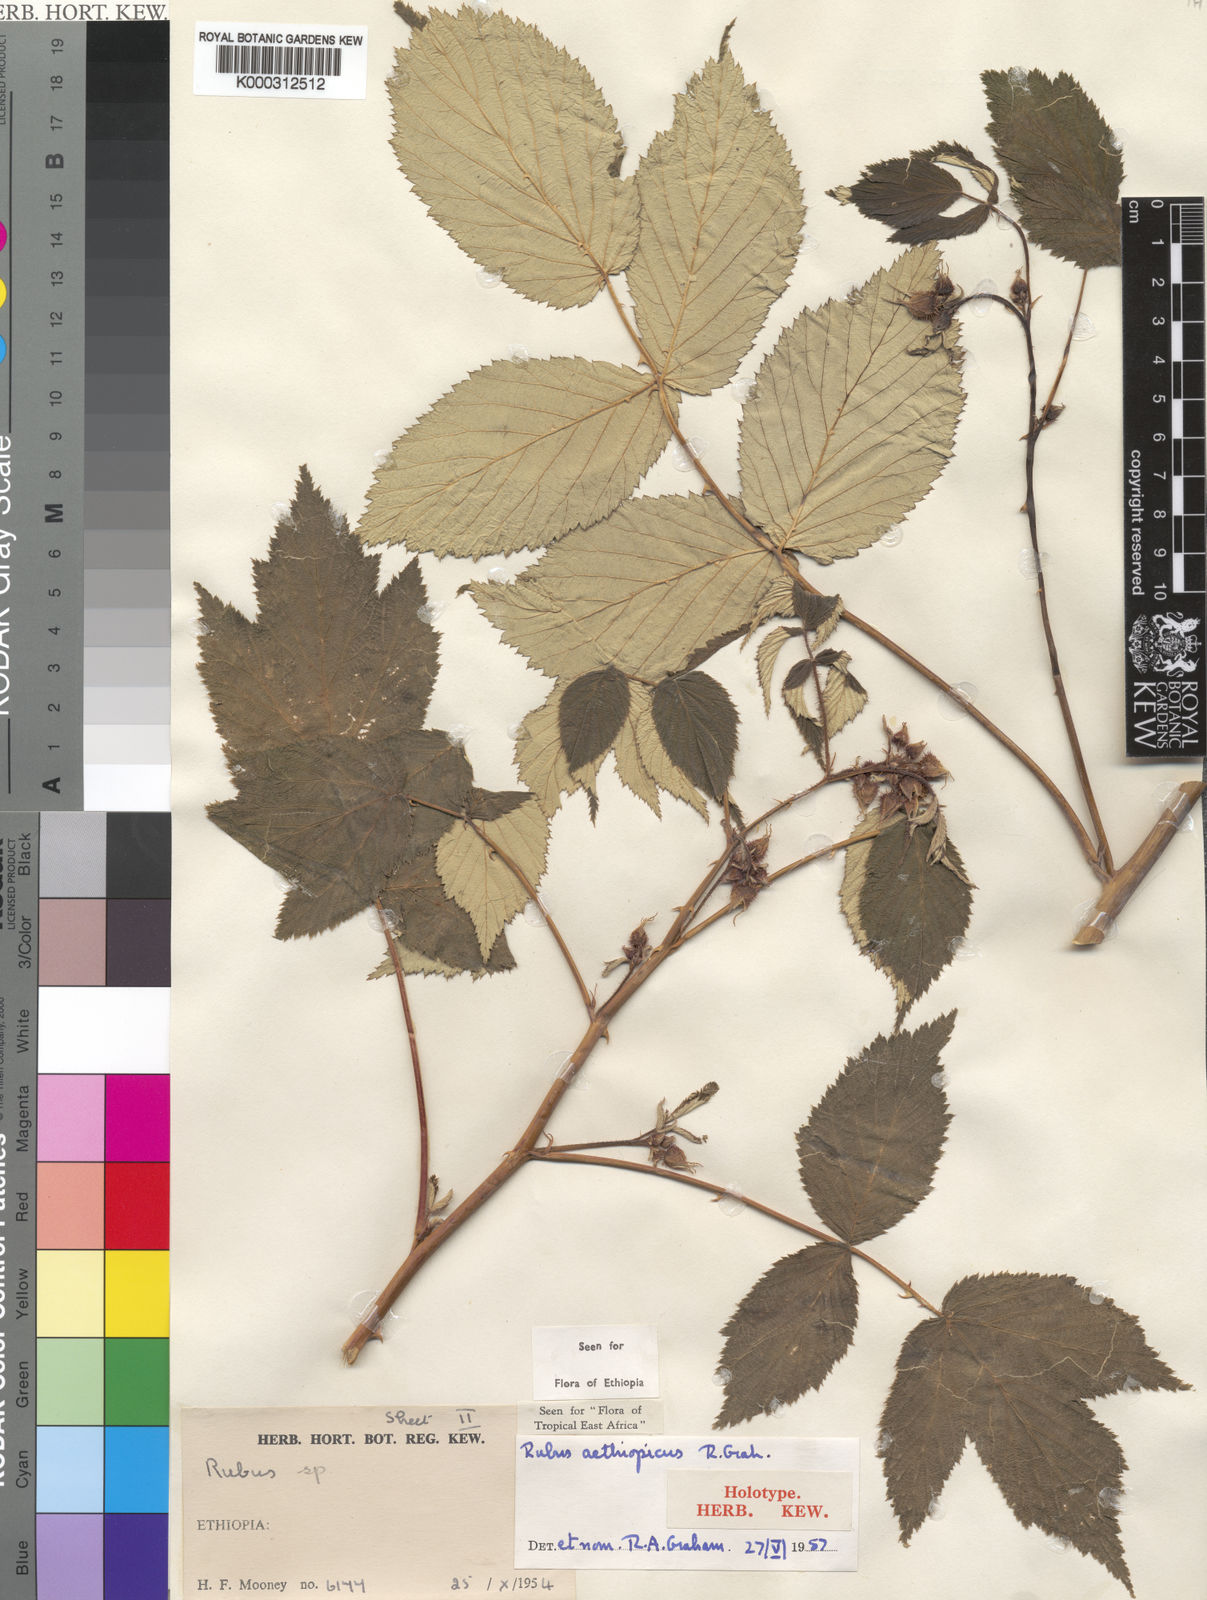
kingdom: Plantae
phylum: Tracheophyta
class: Magnoliopsida
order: Rosales
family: Rosaceae
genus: Rubus
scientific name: Rubus aethiopicus
